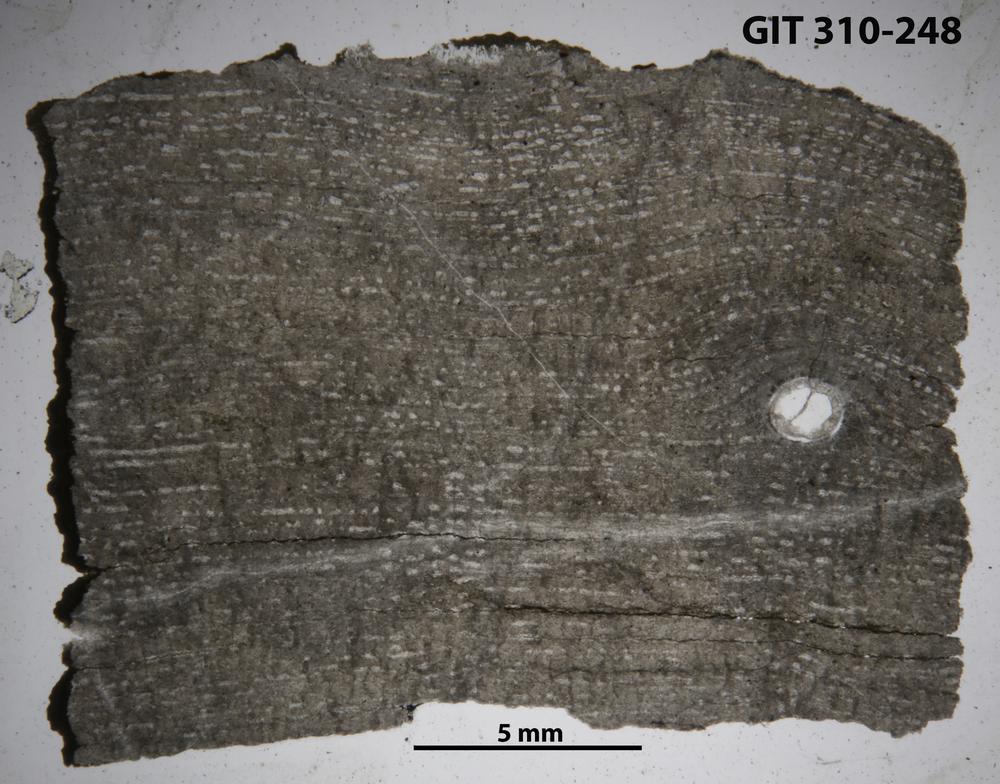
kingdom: Animalia
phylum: Porifera
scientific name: Porifera
